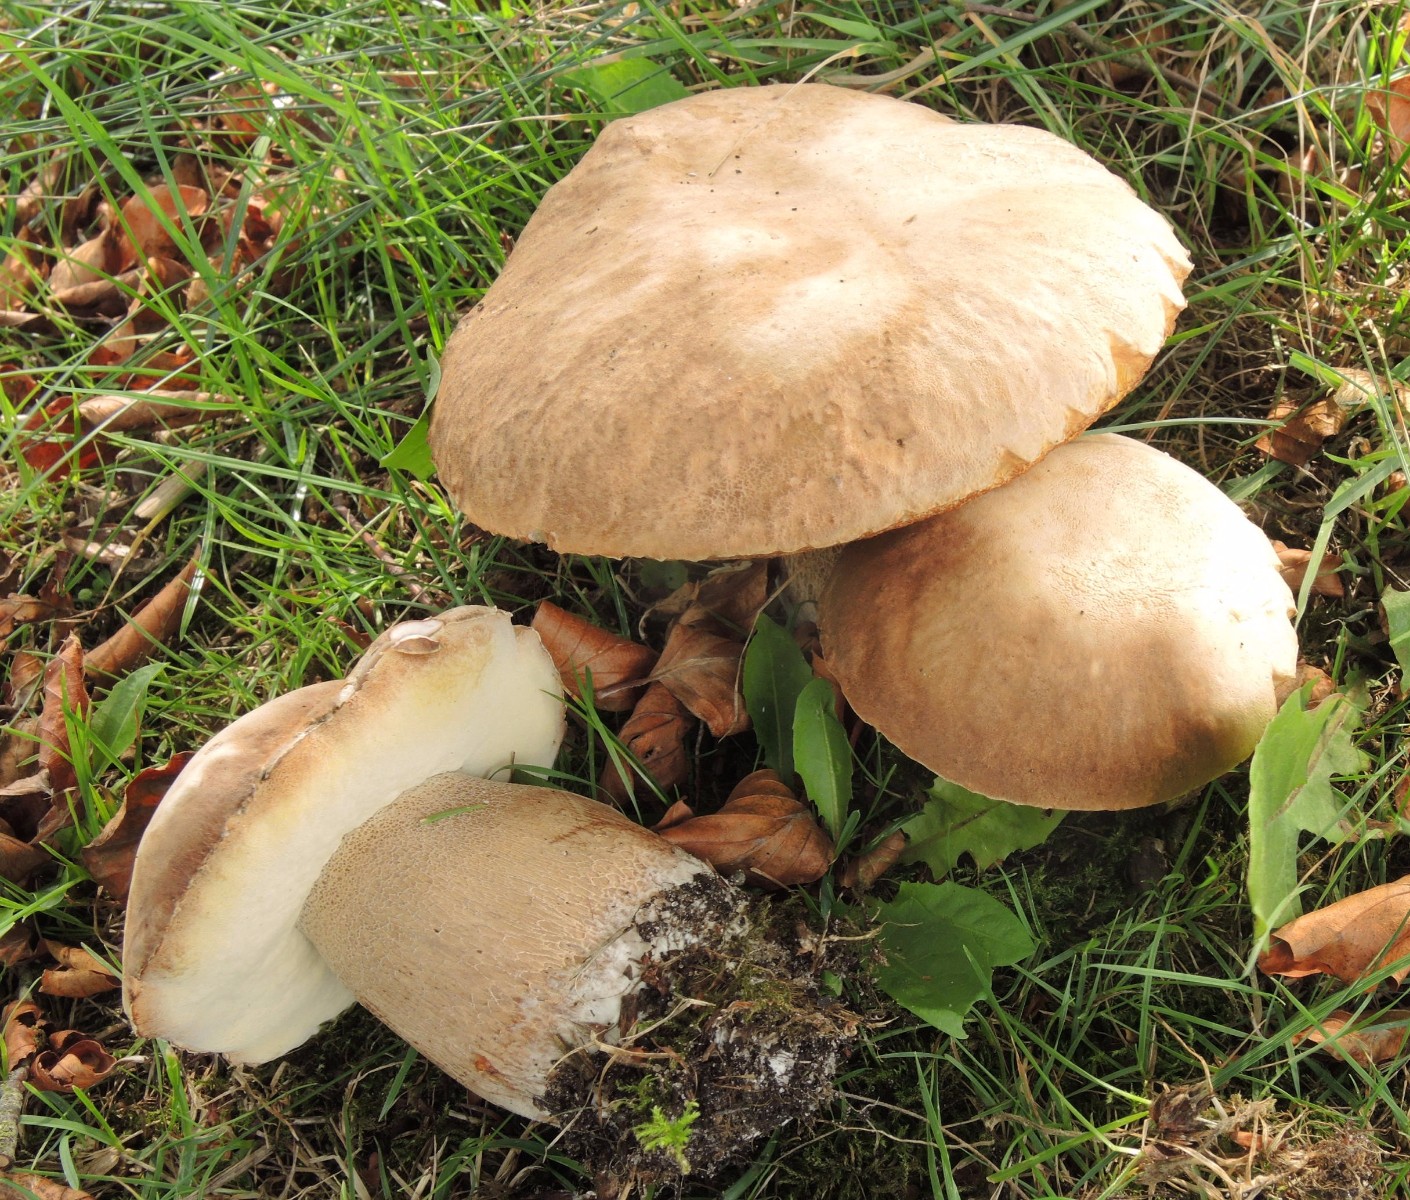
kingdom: Fungi
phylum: Basidiomycota
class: Agaricomycetes
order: Boletales
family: Boletaceae
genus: Boletus
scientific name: Boletus reticulatus
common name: sommer-rørhat
